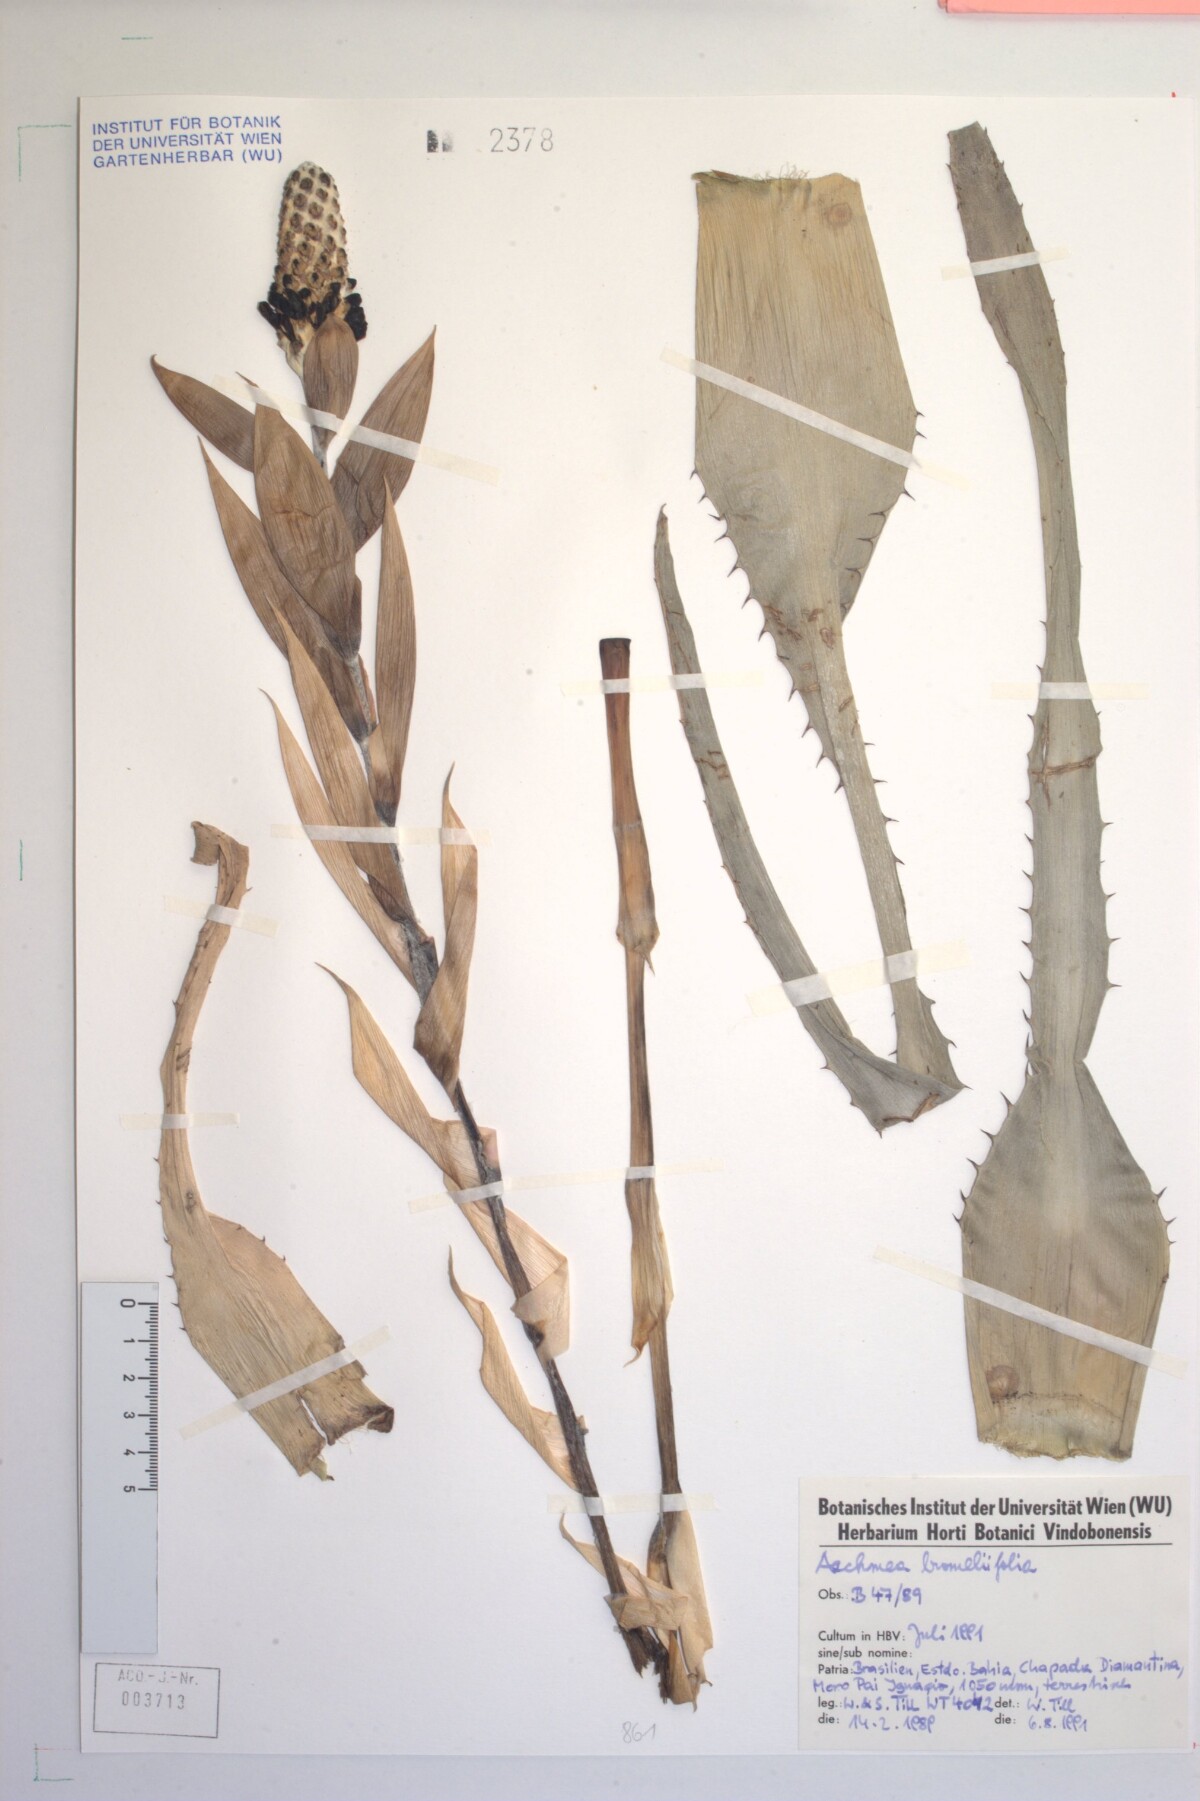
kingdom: Plantae
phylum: Tracheophyta
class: Liliopsida
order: Poales
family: Bromeliaceae
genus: Aechmea
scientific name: Aechmea bromeliifolia
